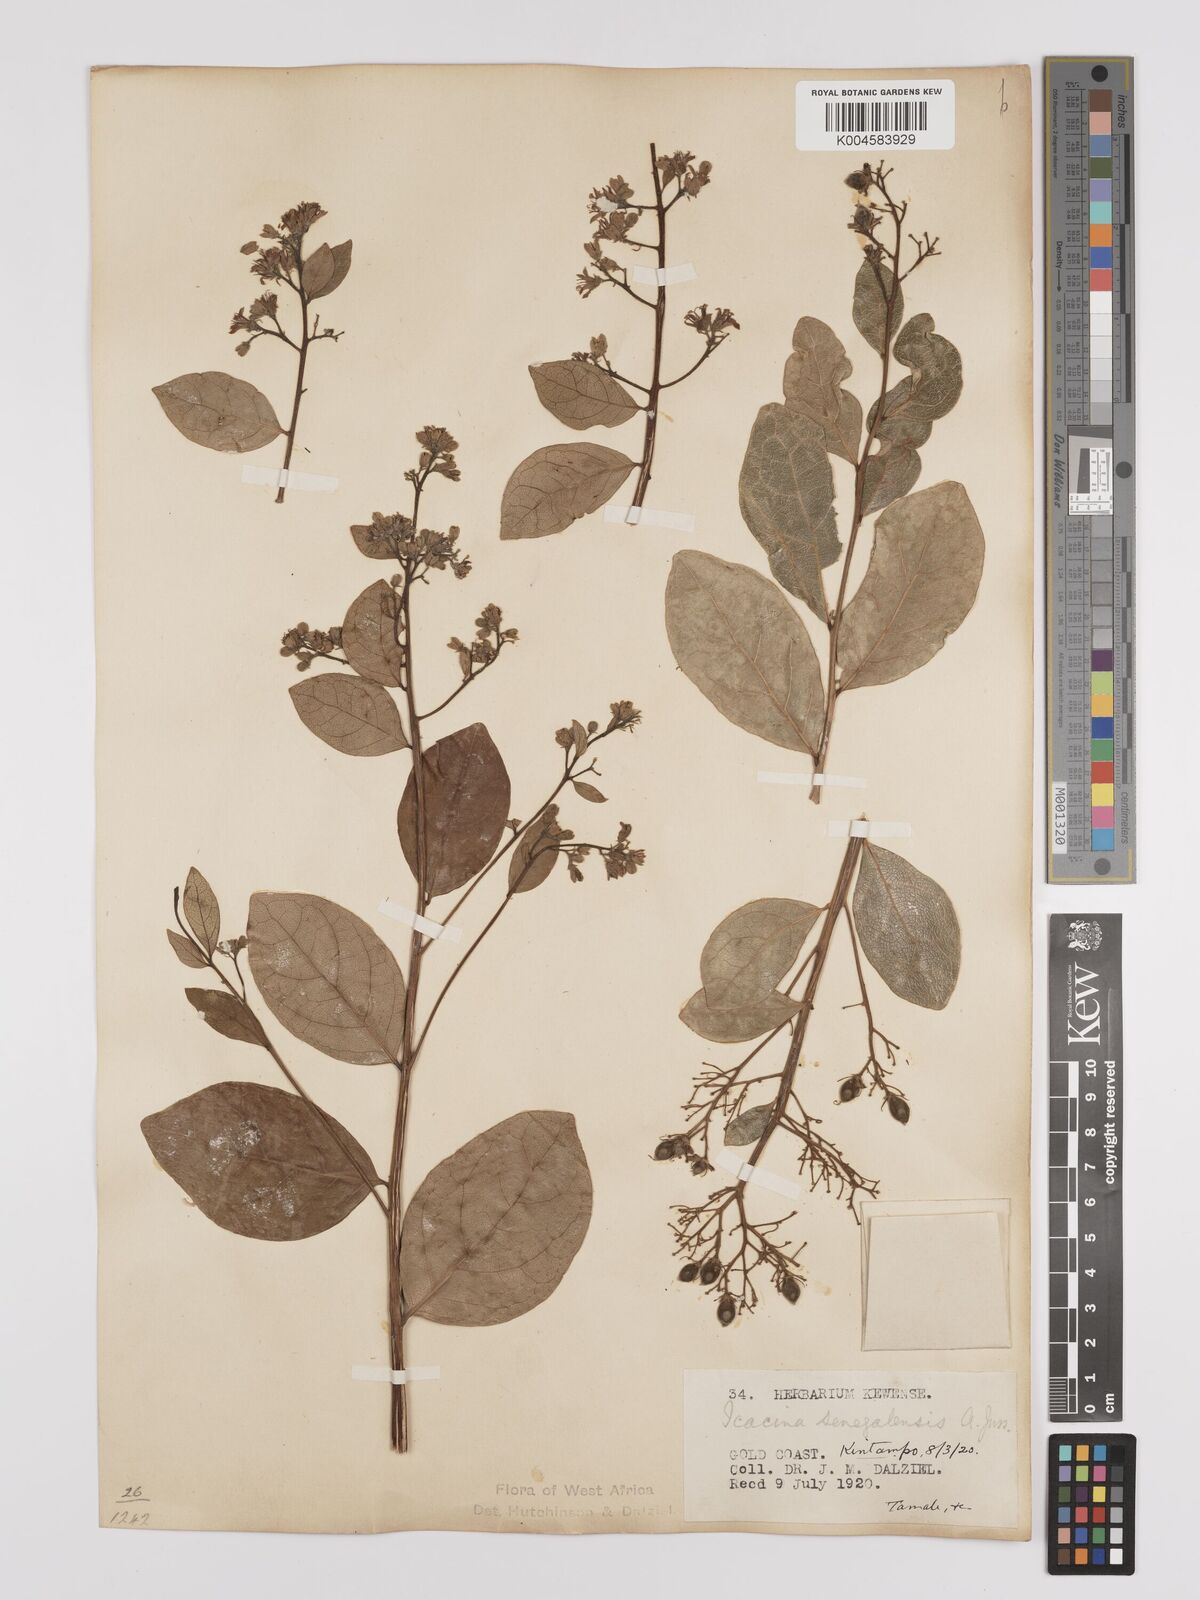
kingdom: Plantae
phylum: Tracheophyta
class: Magnoliopsida
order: Icacinales
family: Icacinaceae
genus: Icacina
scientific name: Icacina oliviformis
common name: False yam
